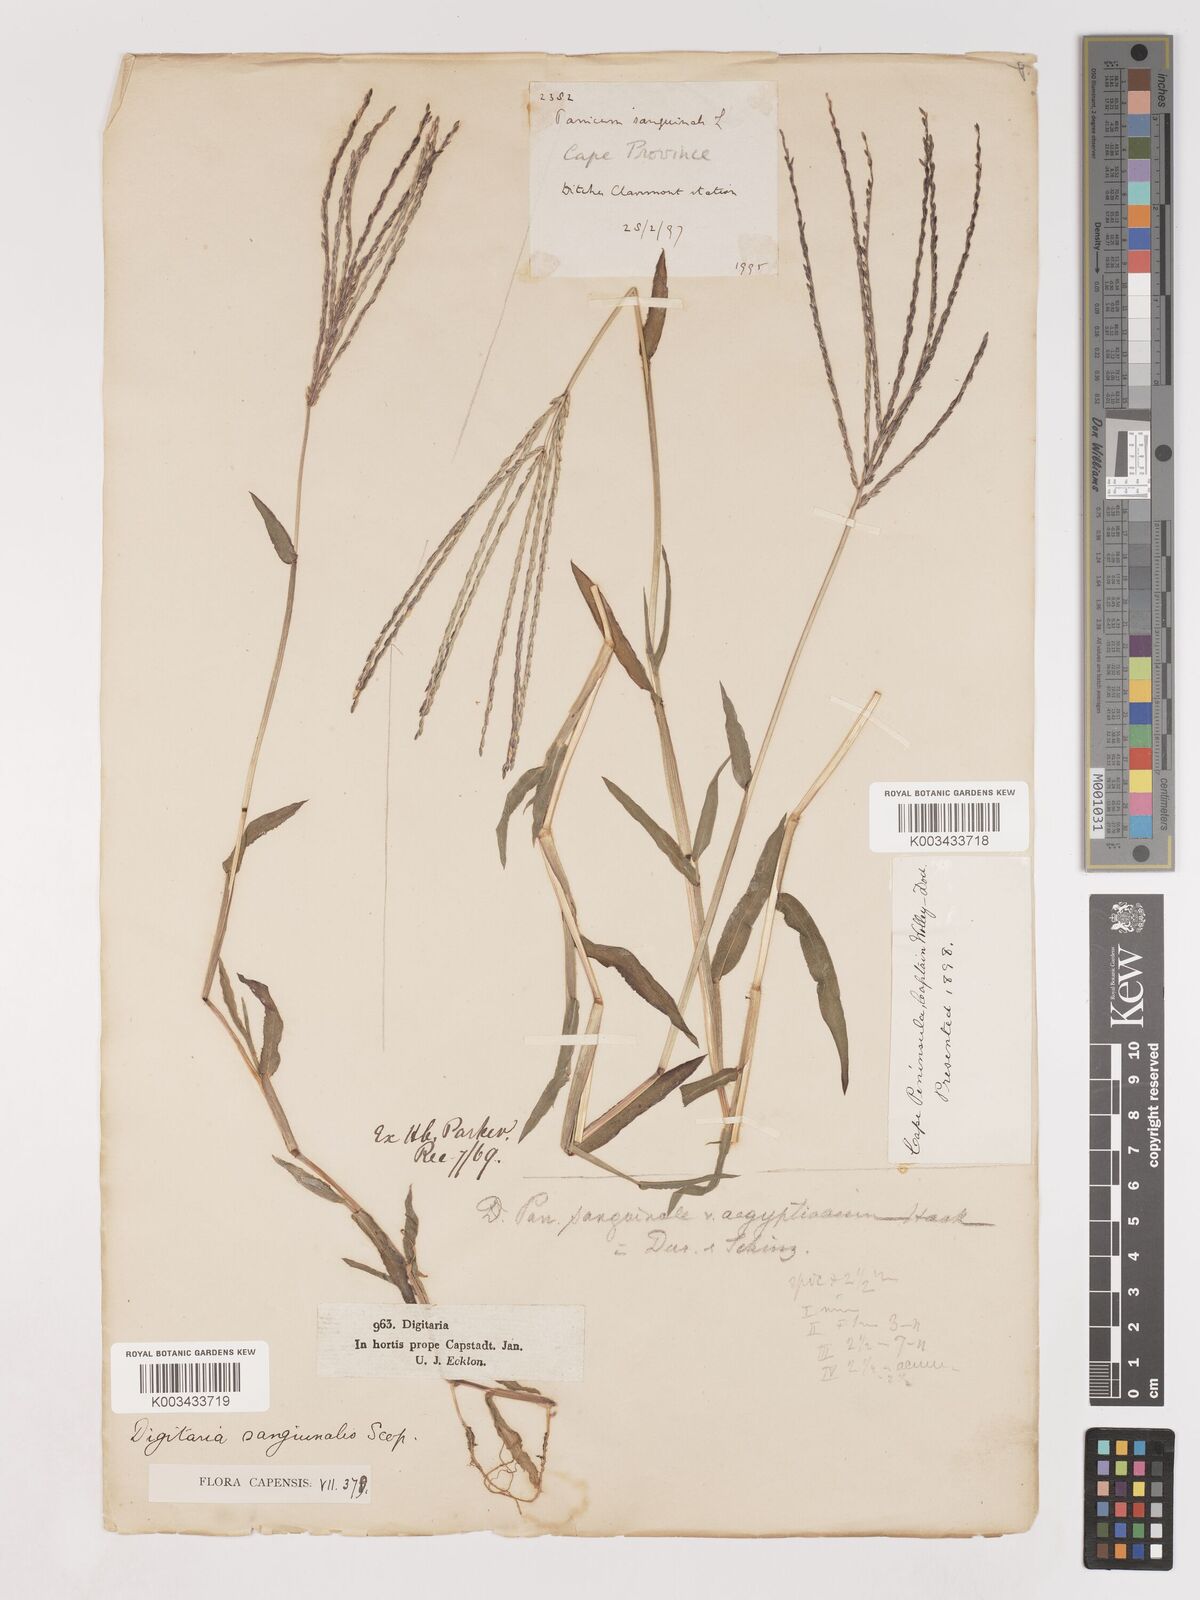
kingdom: Plantae
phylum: Tracheophyta
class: Liliopsida
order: Poales
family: Poaceae
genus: Digitaria
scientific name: Digitaria sanguinalis
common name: Hairy crabgrass
